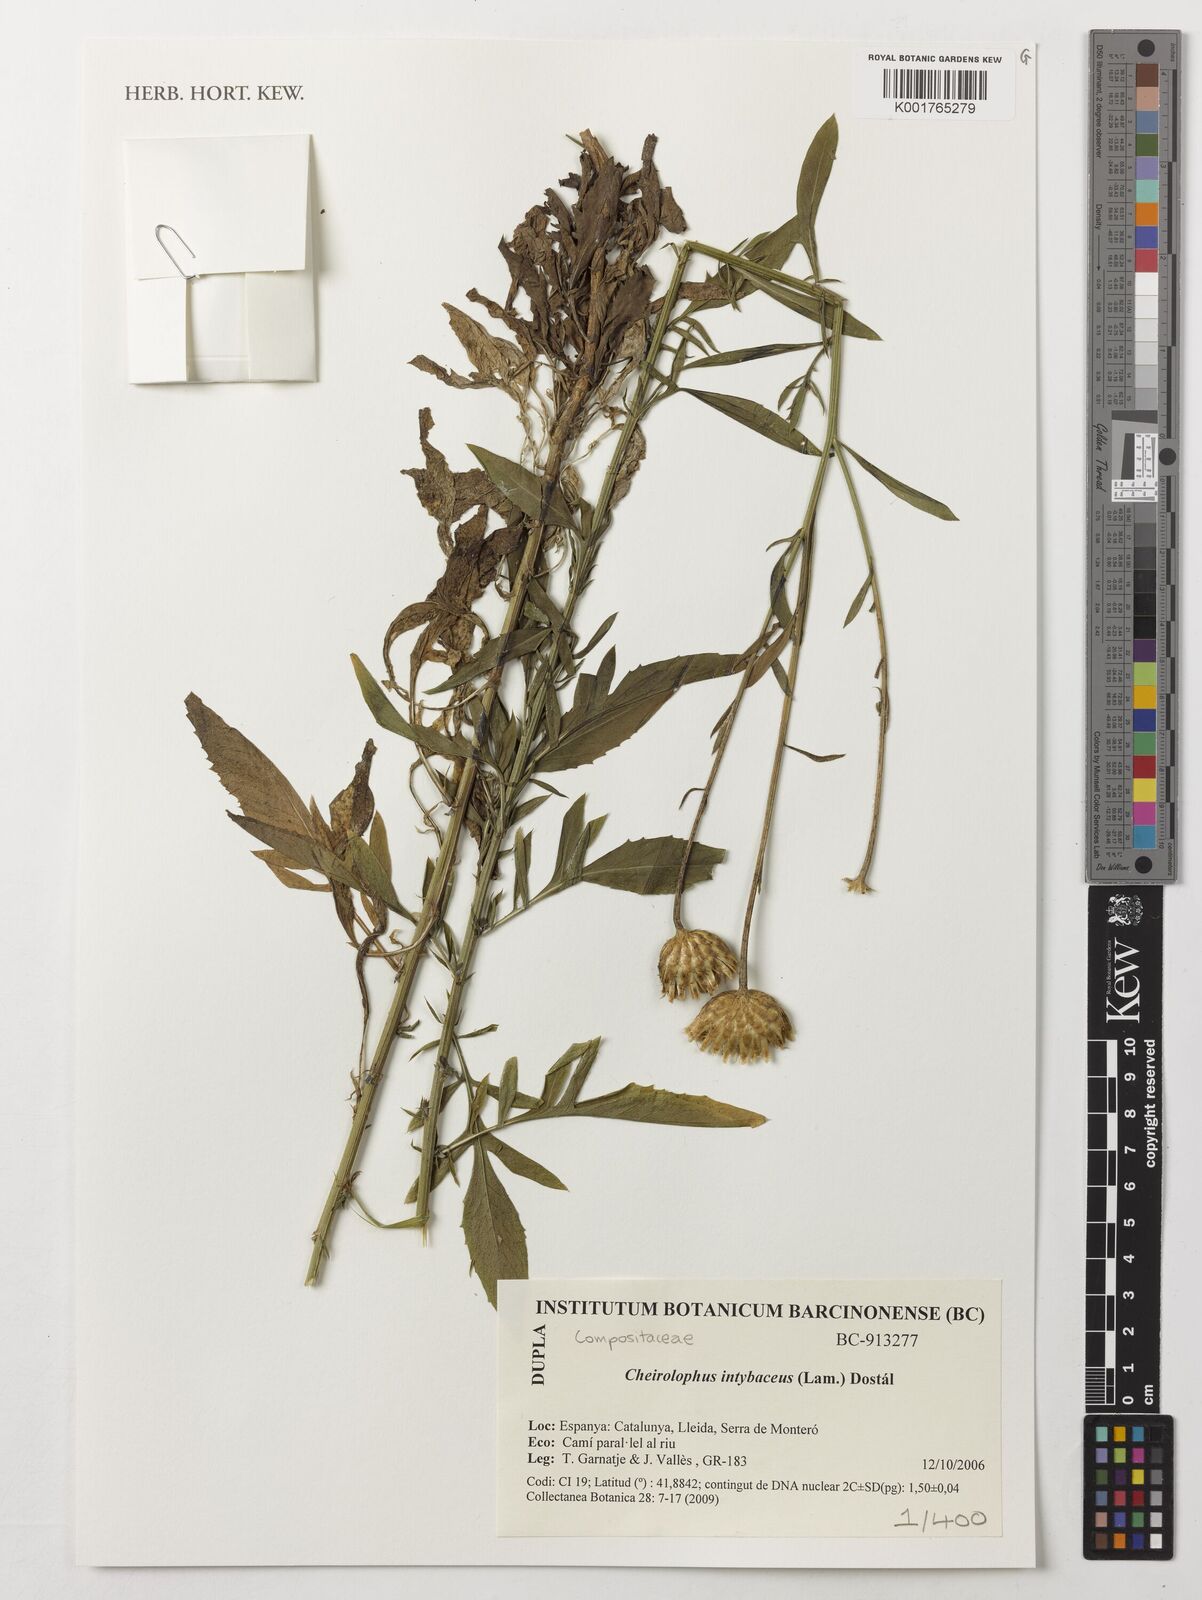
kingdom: Plantae
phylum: Tracheophyta
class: Magnoliopsida
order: Asterales
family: Asteraceae
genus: Cheirolophus
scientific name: Cheirolophus intybaceus
